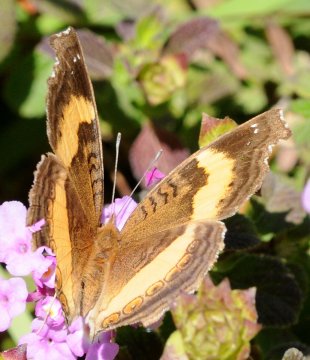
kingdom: Animalia
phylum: Arthropoda
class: Insecta
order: Lepidoptera
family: Nymphalidae
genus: Junonia
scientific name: Junonia terea
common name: Soldier Pansy
